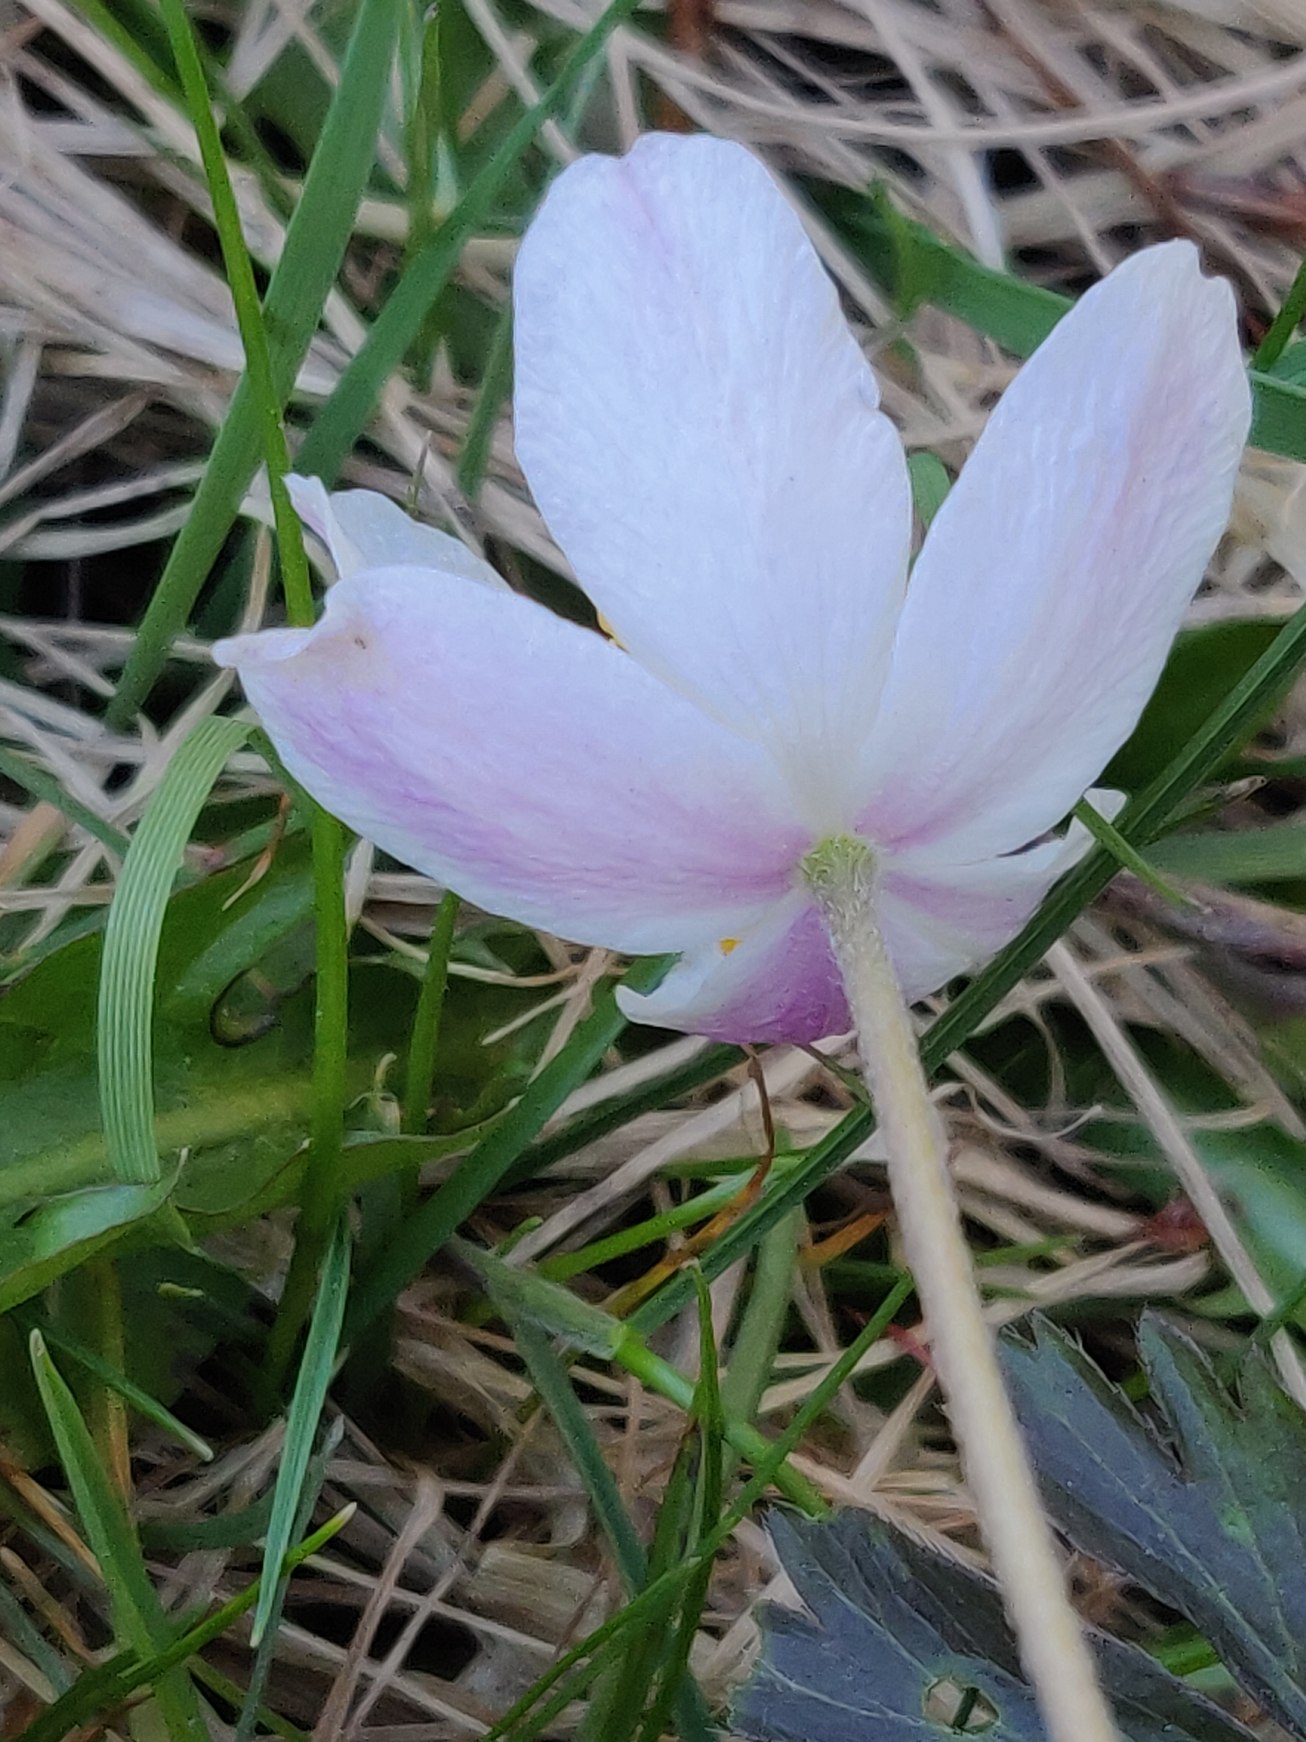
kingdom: Plantae
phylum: Tracheophyta
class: Magnoliopsida
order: Ranunculales
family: Ranunculaceae
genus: Anemone
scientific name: Anemone nemorosa
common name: Hvid anemone
